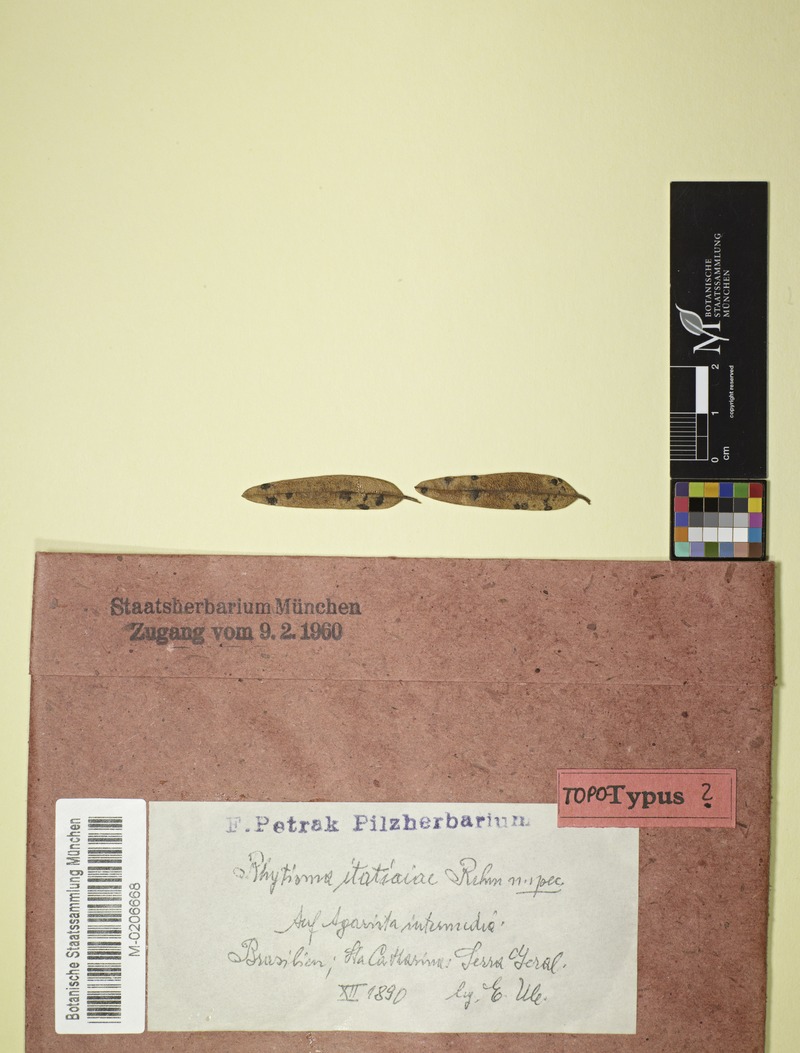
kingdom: Fungi
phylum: Ascomycota
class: Leotiomycetes
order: Rhytismatales
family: Rhytismataceae
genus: Rhytisma
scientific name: Rhytisma itatiaiae
